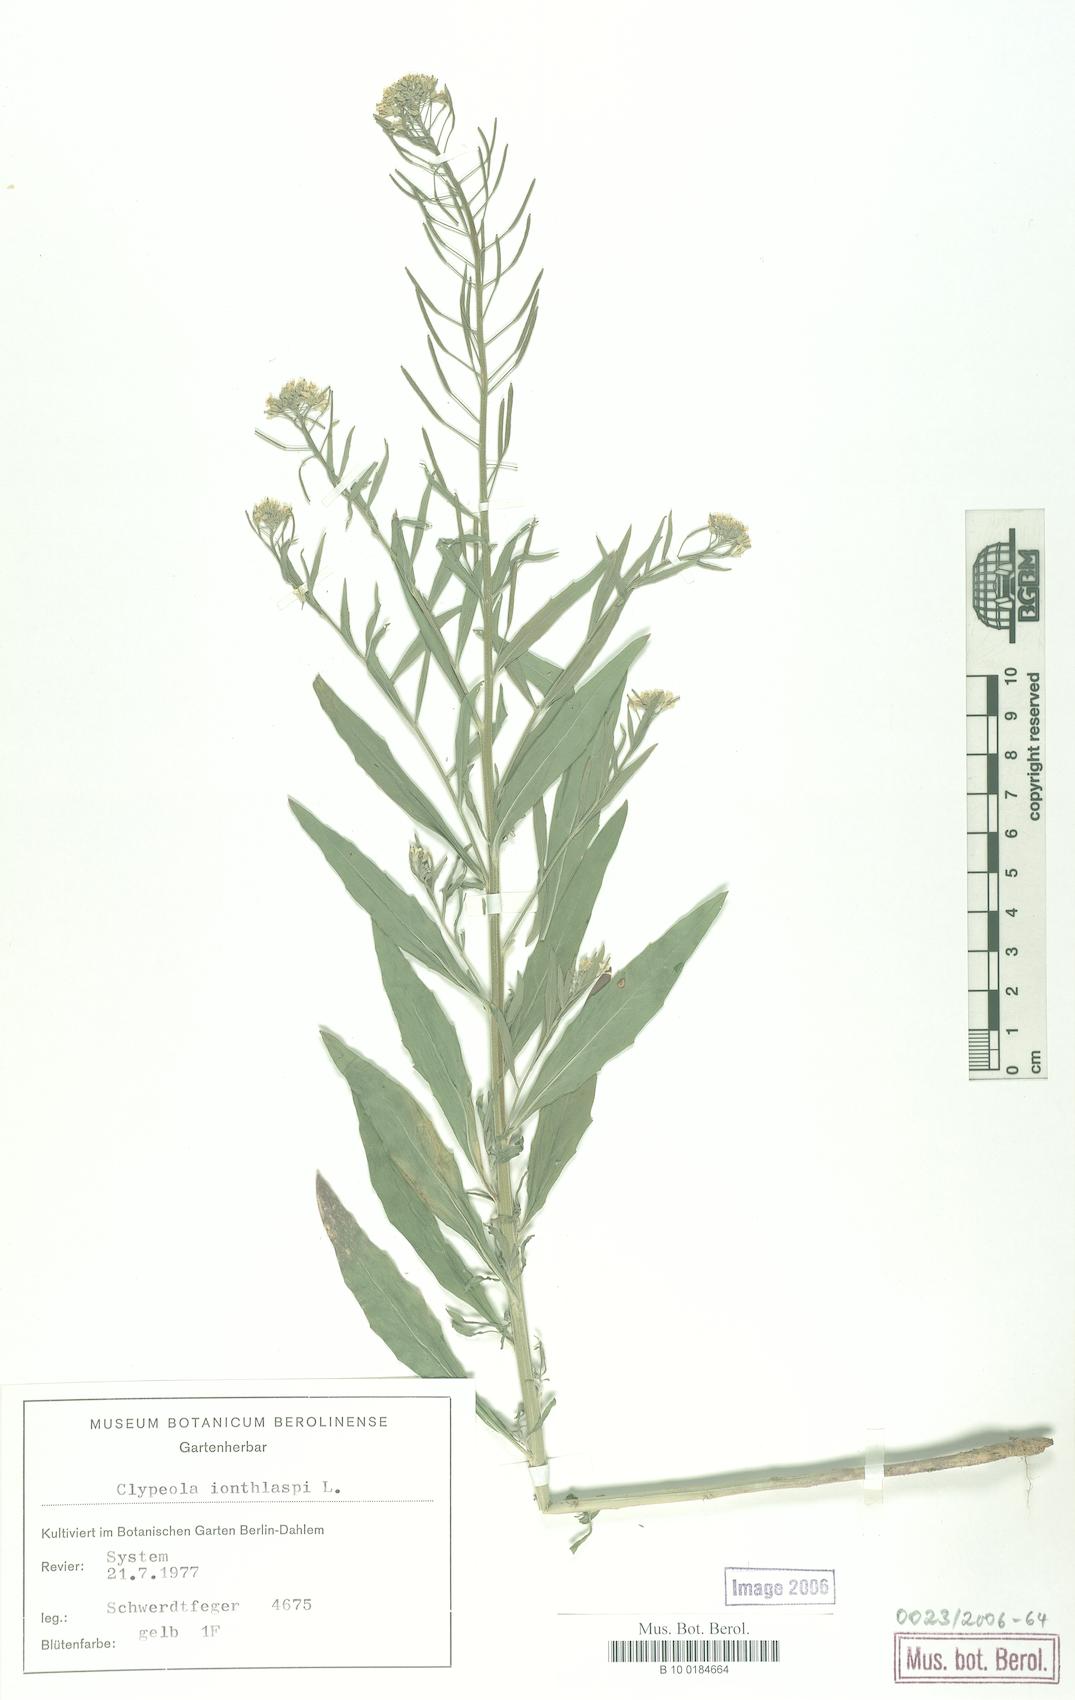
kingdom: Plantae
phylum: Tracheophyta
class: Magnoliopsida
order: Brassicales
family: Brassicaceae
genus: Clypeola
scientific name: Clypeola jonthlaspi
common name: Disk cress
